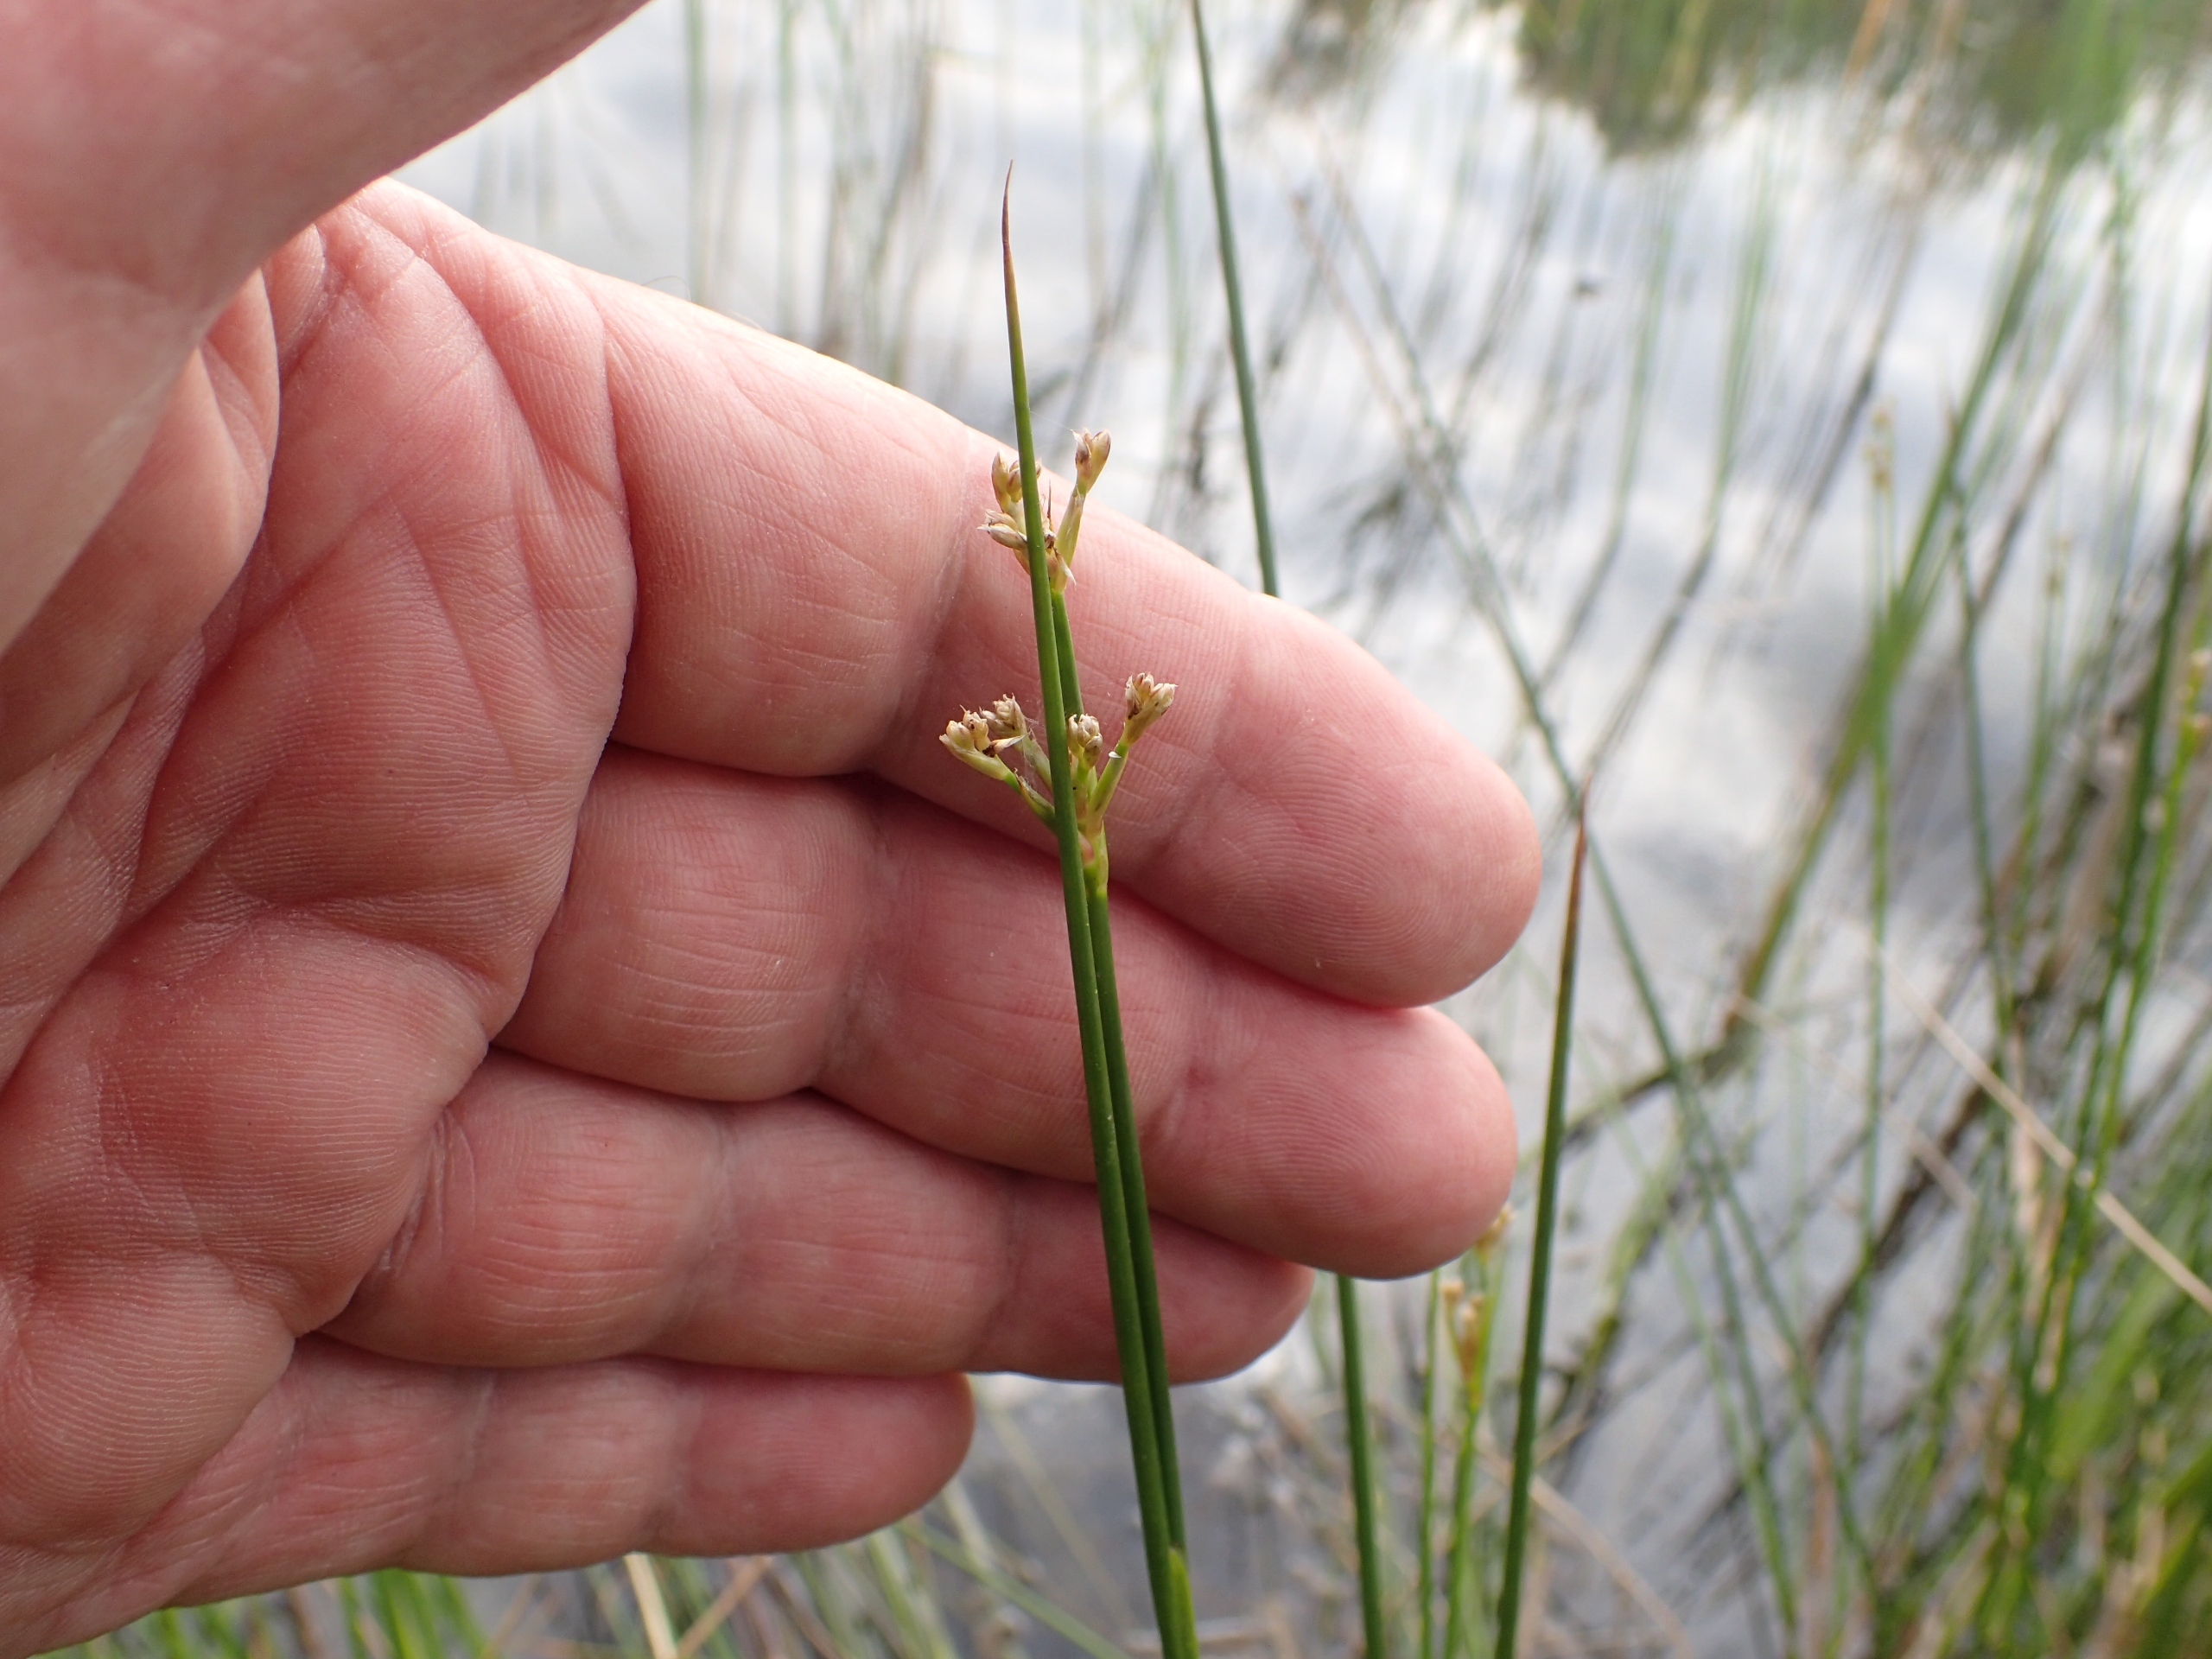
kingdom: Plantae
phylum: Tracheophyta
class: Liliopsida
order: Poales
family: Juncaceae
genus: Juncus
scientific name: Juncus subnodulosus
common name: Butblomstret siv
